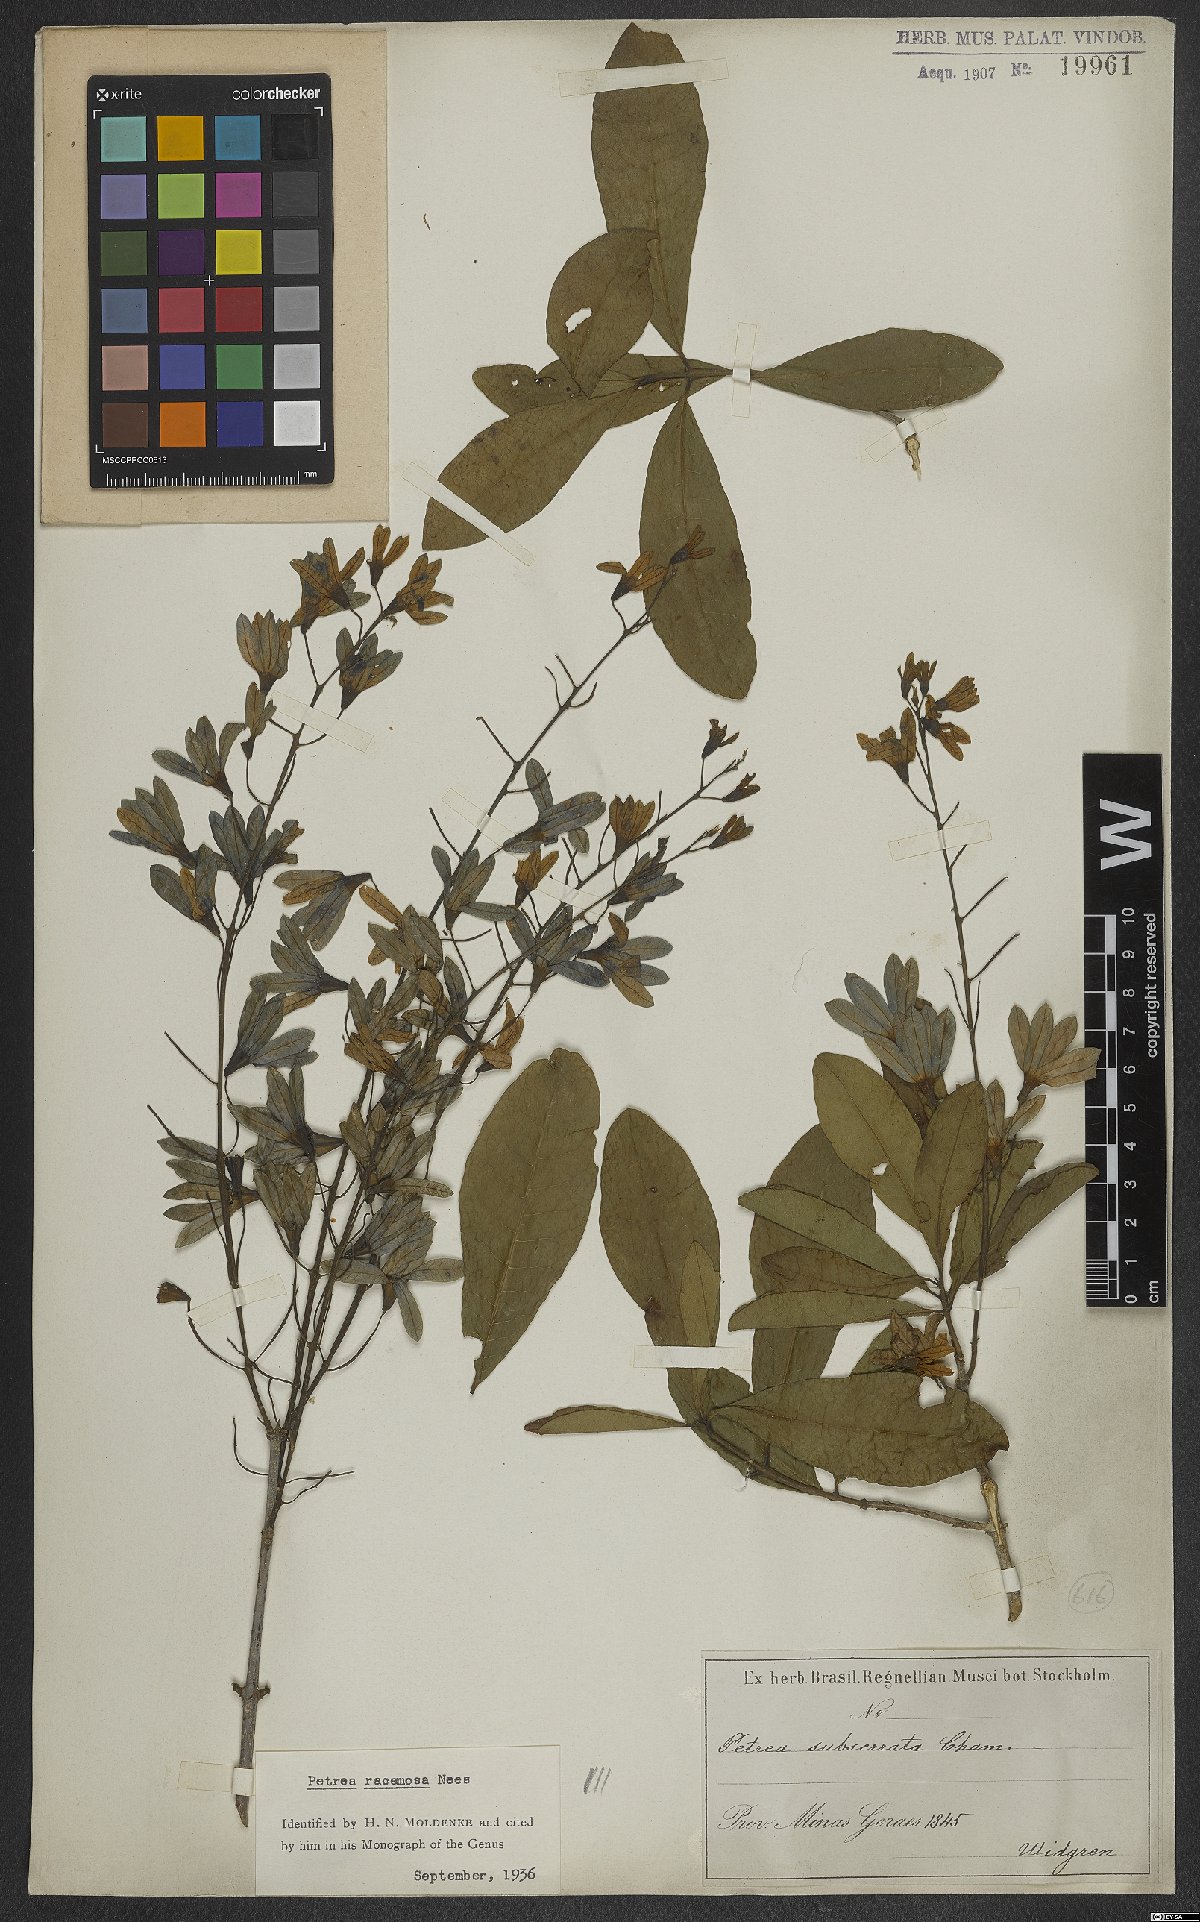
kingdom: Plantae
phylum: Tracheophyta
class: Magnoliopsida
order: Lamiales
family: Verbenaceae
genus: Petrea
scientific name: Petrea volubilis
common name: Queen's-wreath
